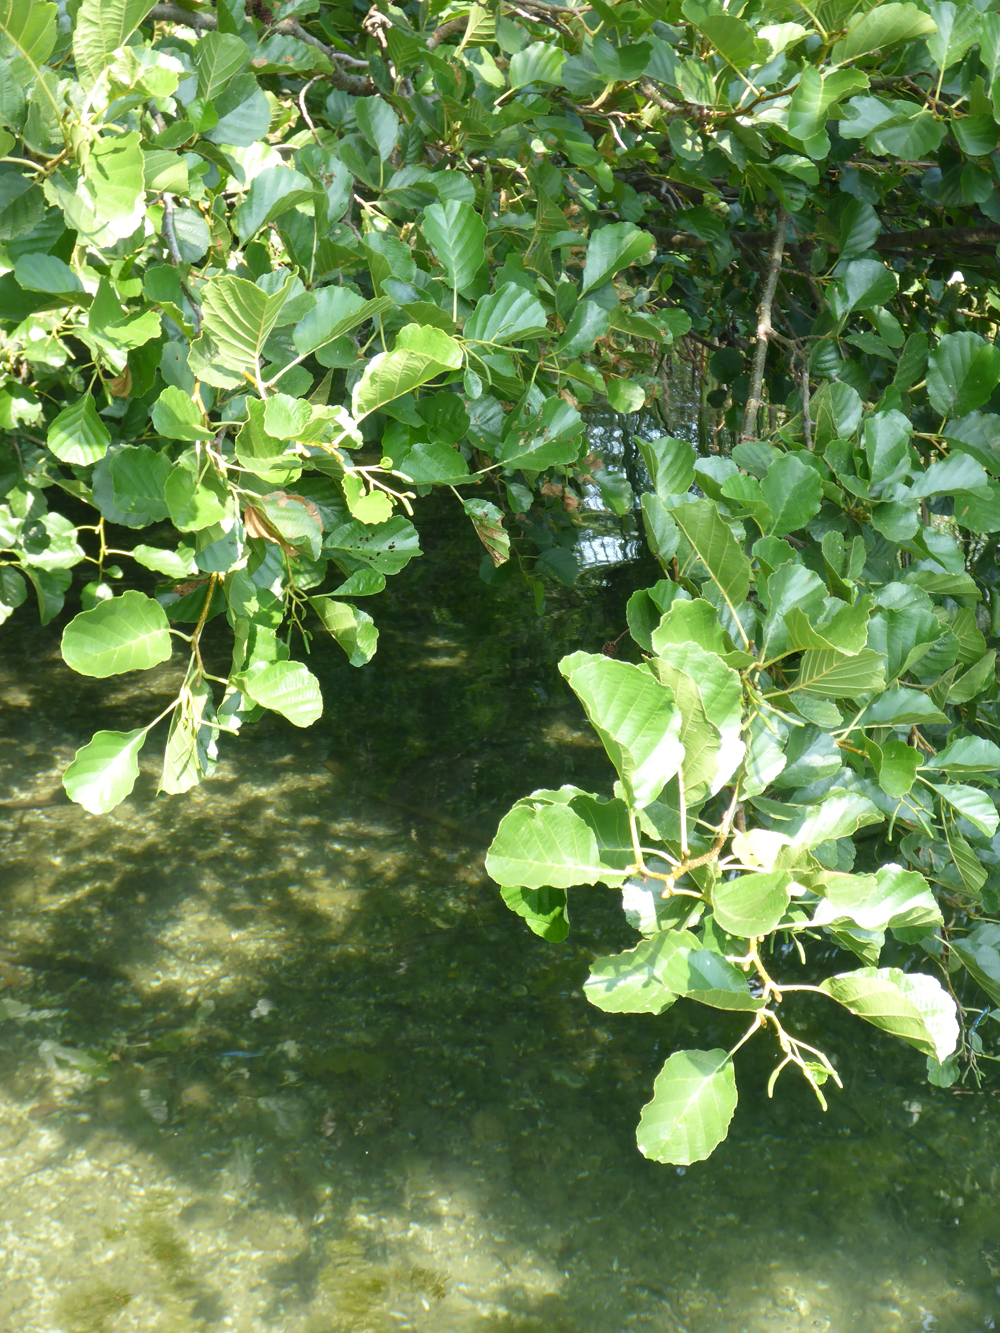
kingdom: Plantae
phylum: Tracheophyta
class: Magnoliopsida
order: Fagales
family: Betulaceae
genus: Alnus
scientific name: Alnus glutinosa
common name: Black alder
